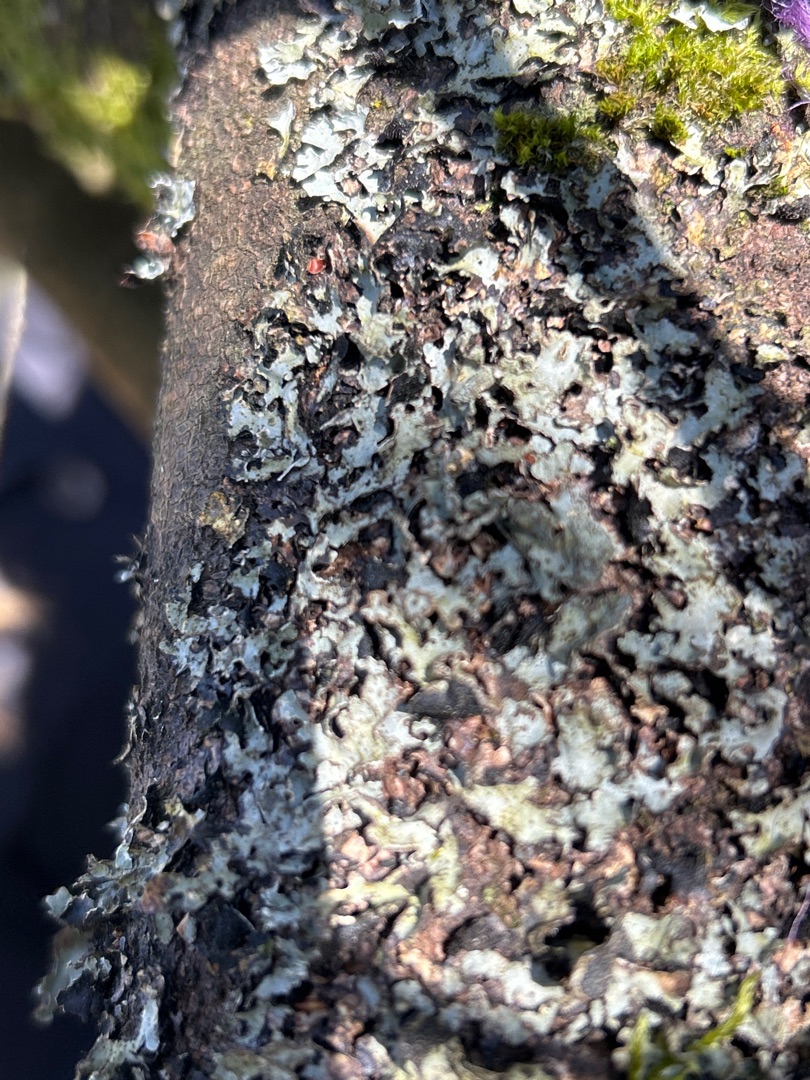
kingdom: Fungi
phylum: Ascomycota
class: Lecanoromycetes
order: Lecanorales
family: Parmeliaceae
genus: Parmelia
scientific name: Parmelia sulcata
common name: Rynket skållav
